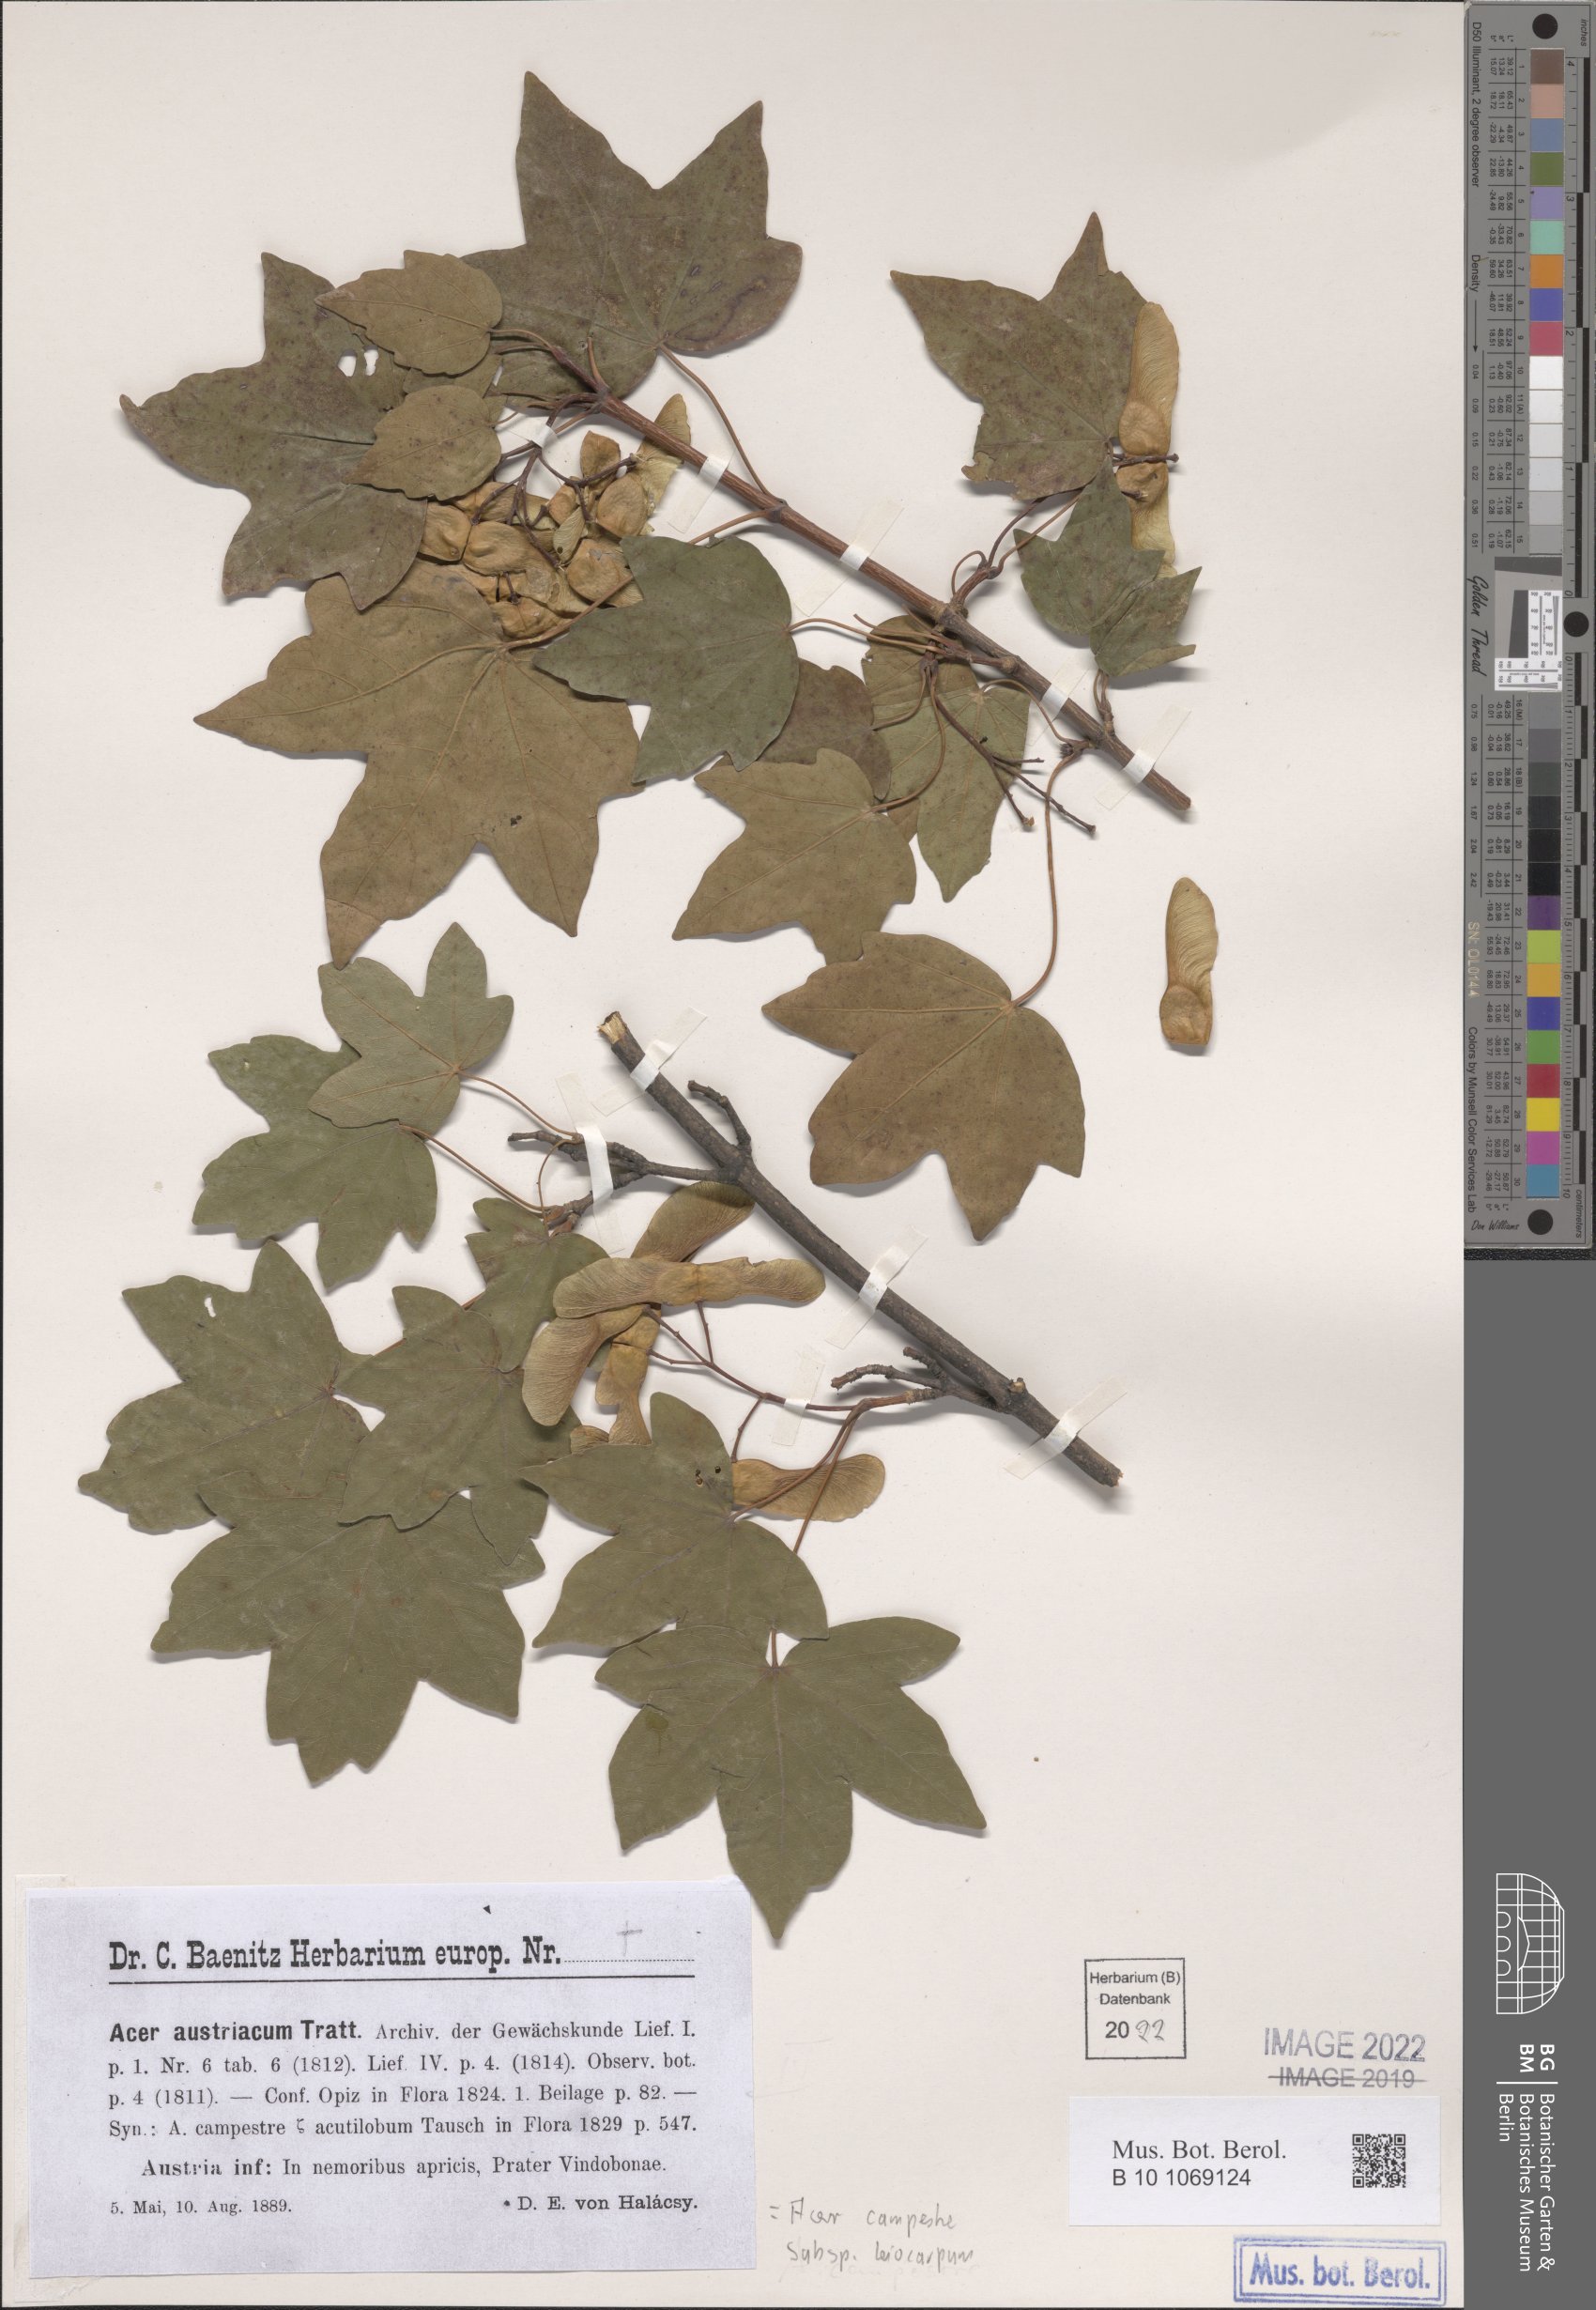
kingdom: Plantae
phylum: Tracheophyta
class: Magnoliopsida
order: Sapindales
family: Sapindaceae
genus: Acer
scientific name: Acer campestre
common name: Field maple
